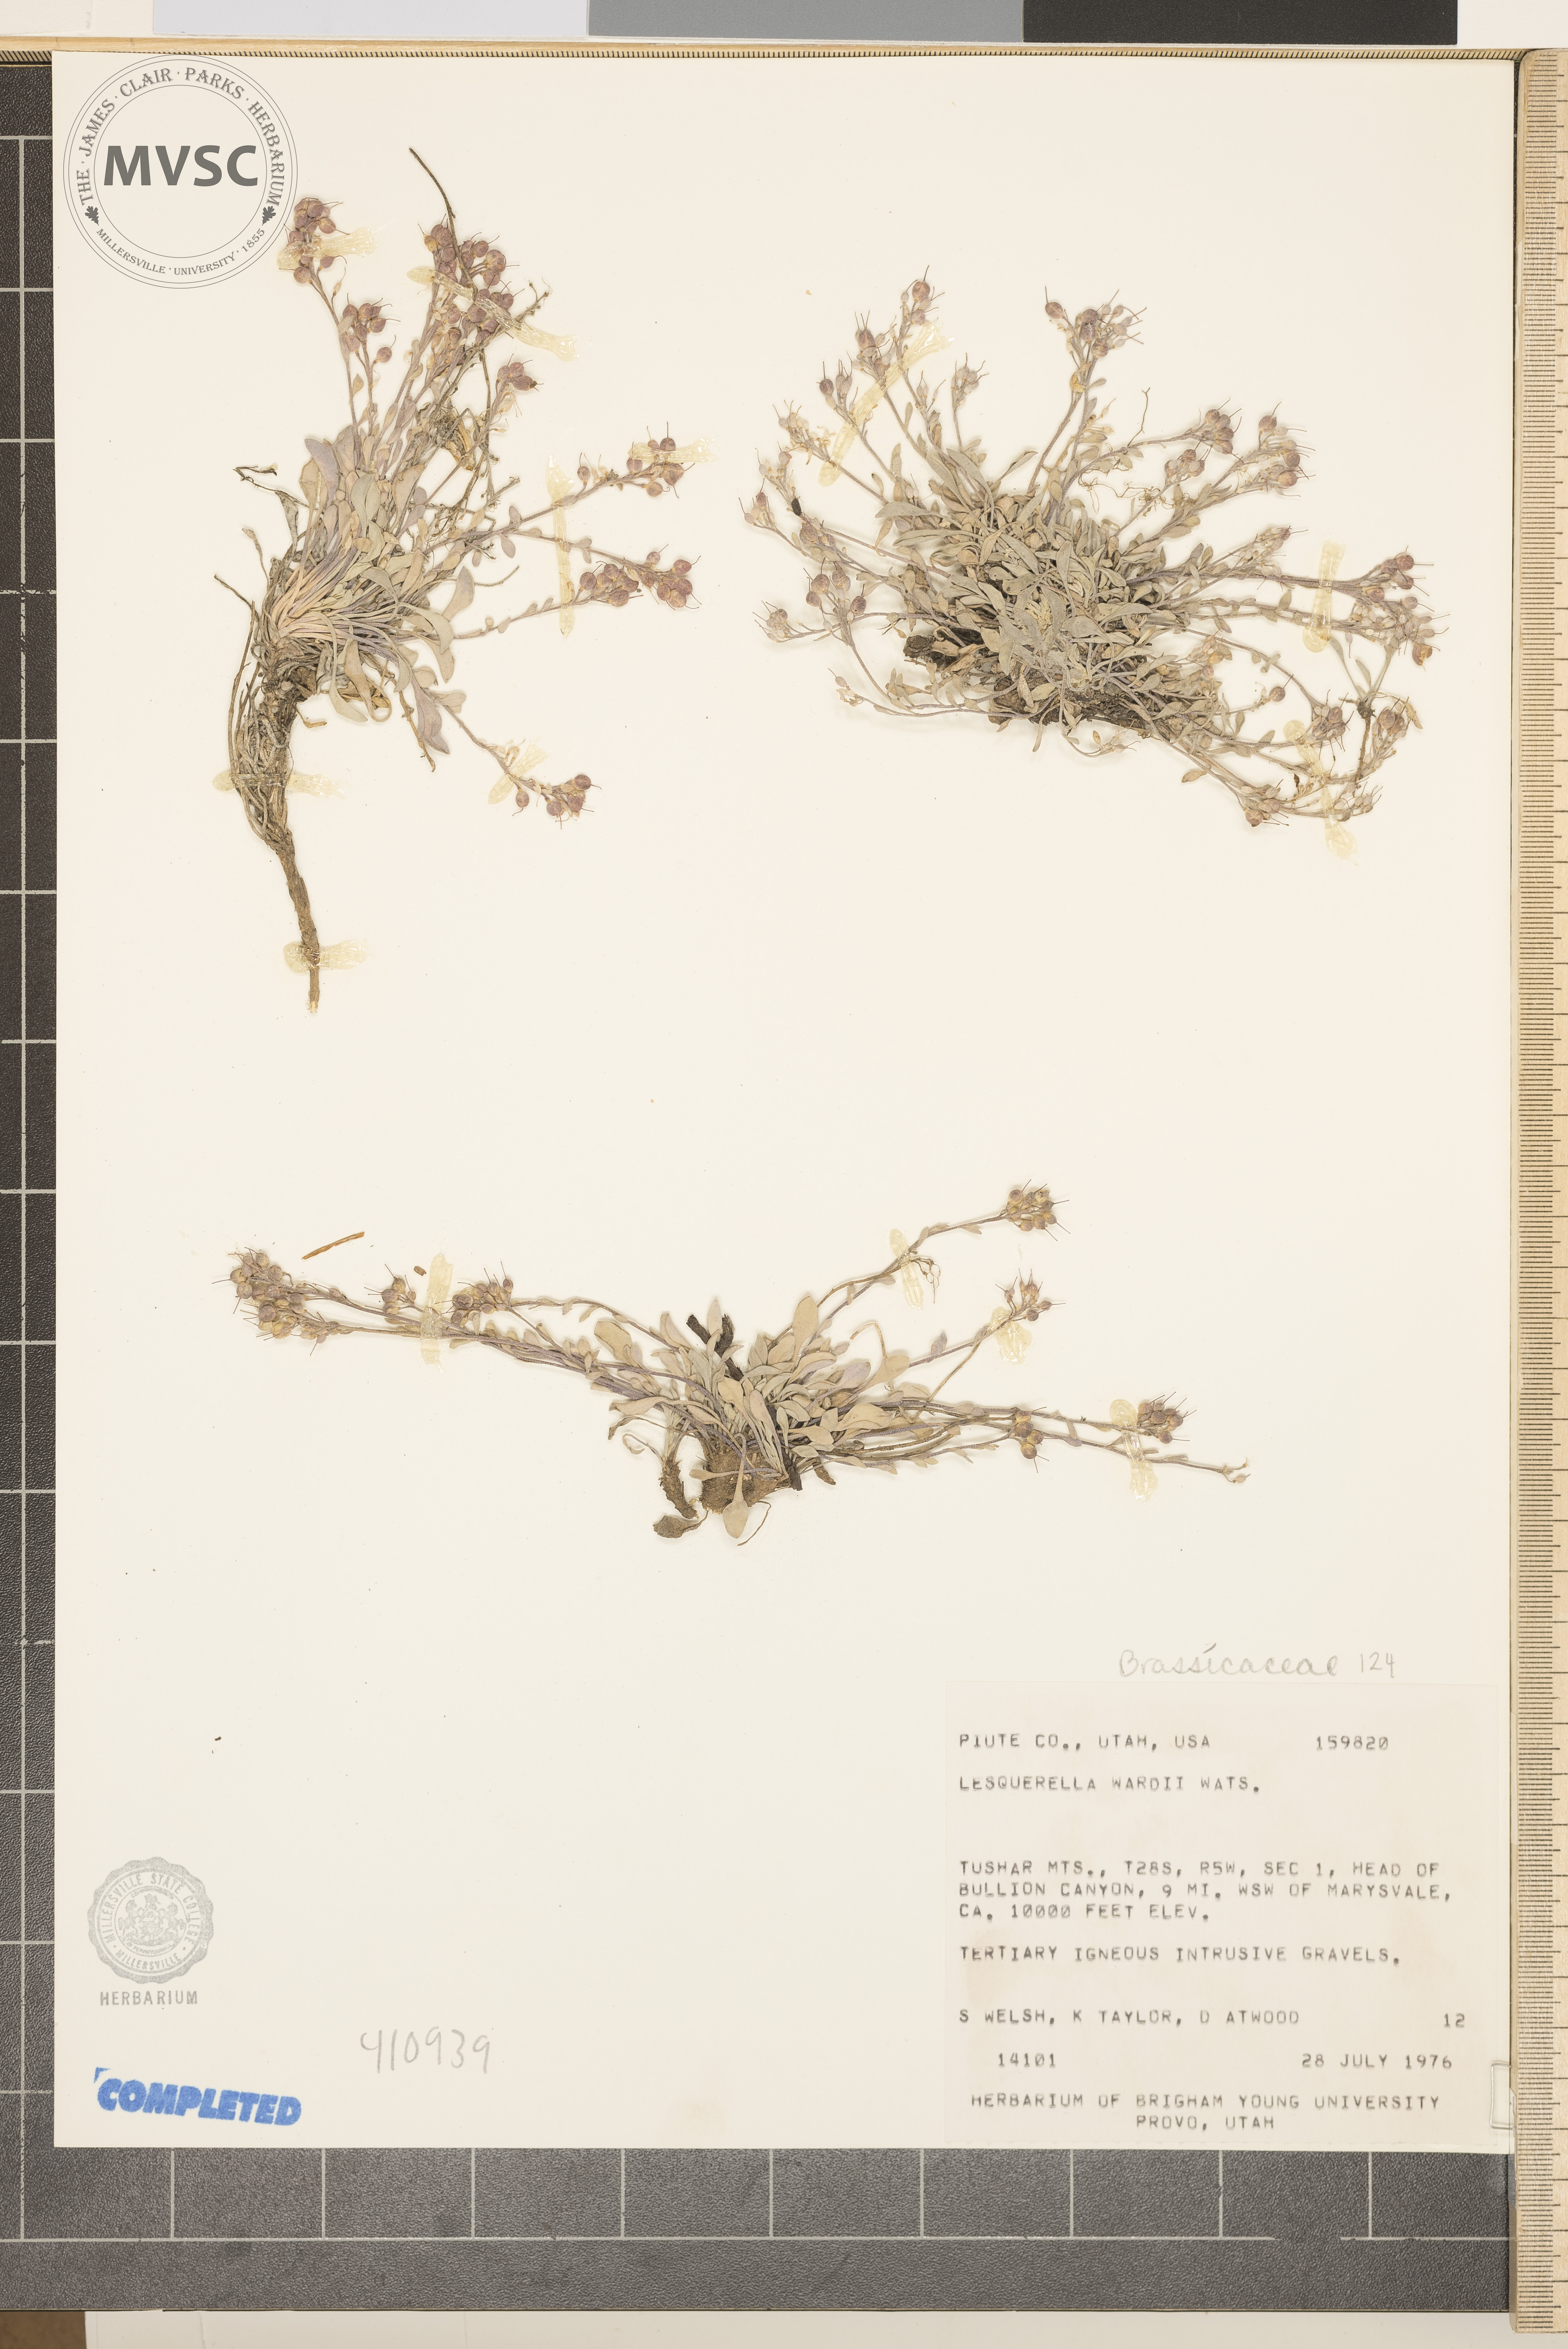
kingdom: Plantae
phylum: Tracheophyta
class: Magnoliopsida
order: Brassicales
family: Brassicaceae
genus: Physaria
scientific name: Physaria kingii
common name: Ward's Bladderpod
